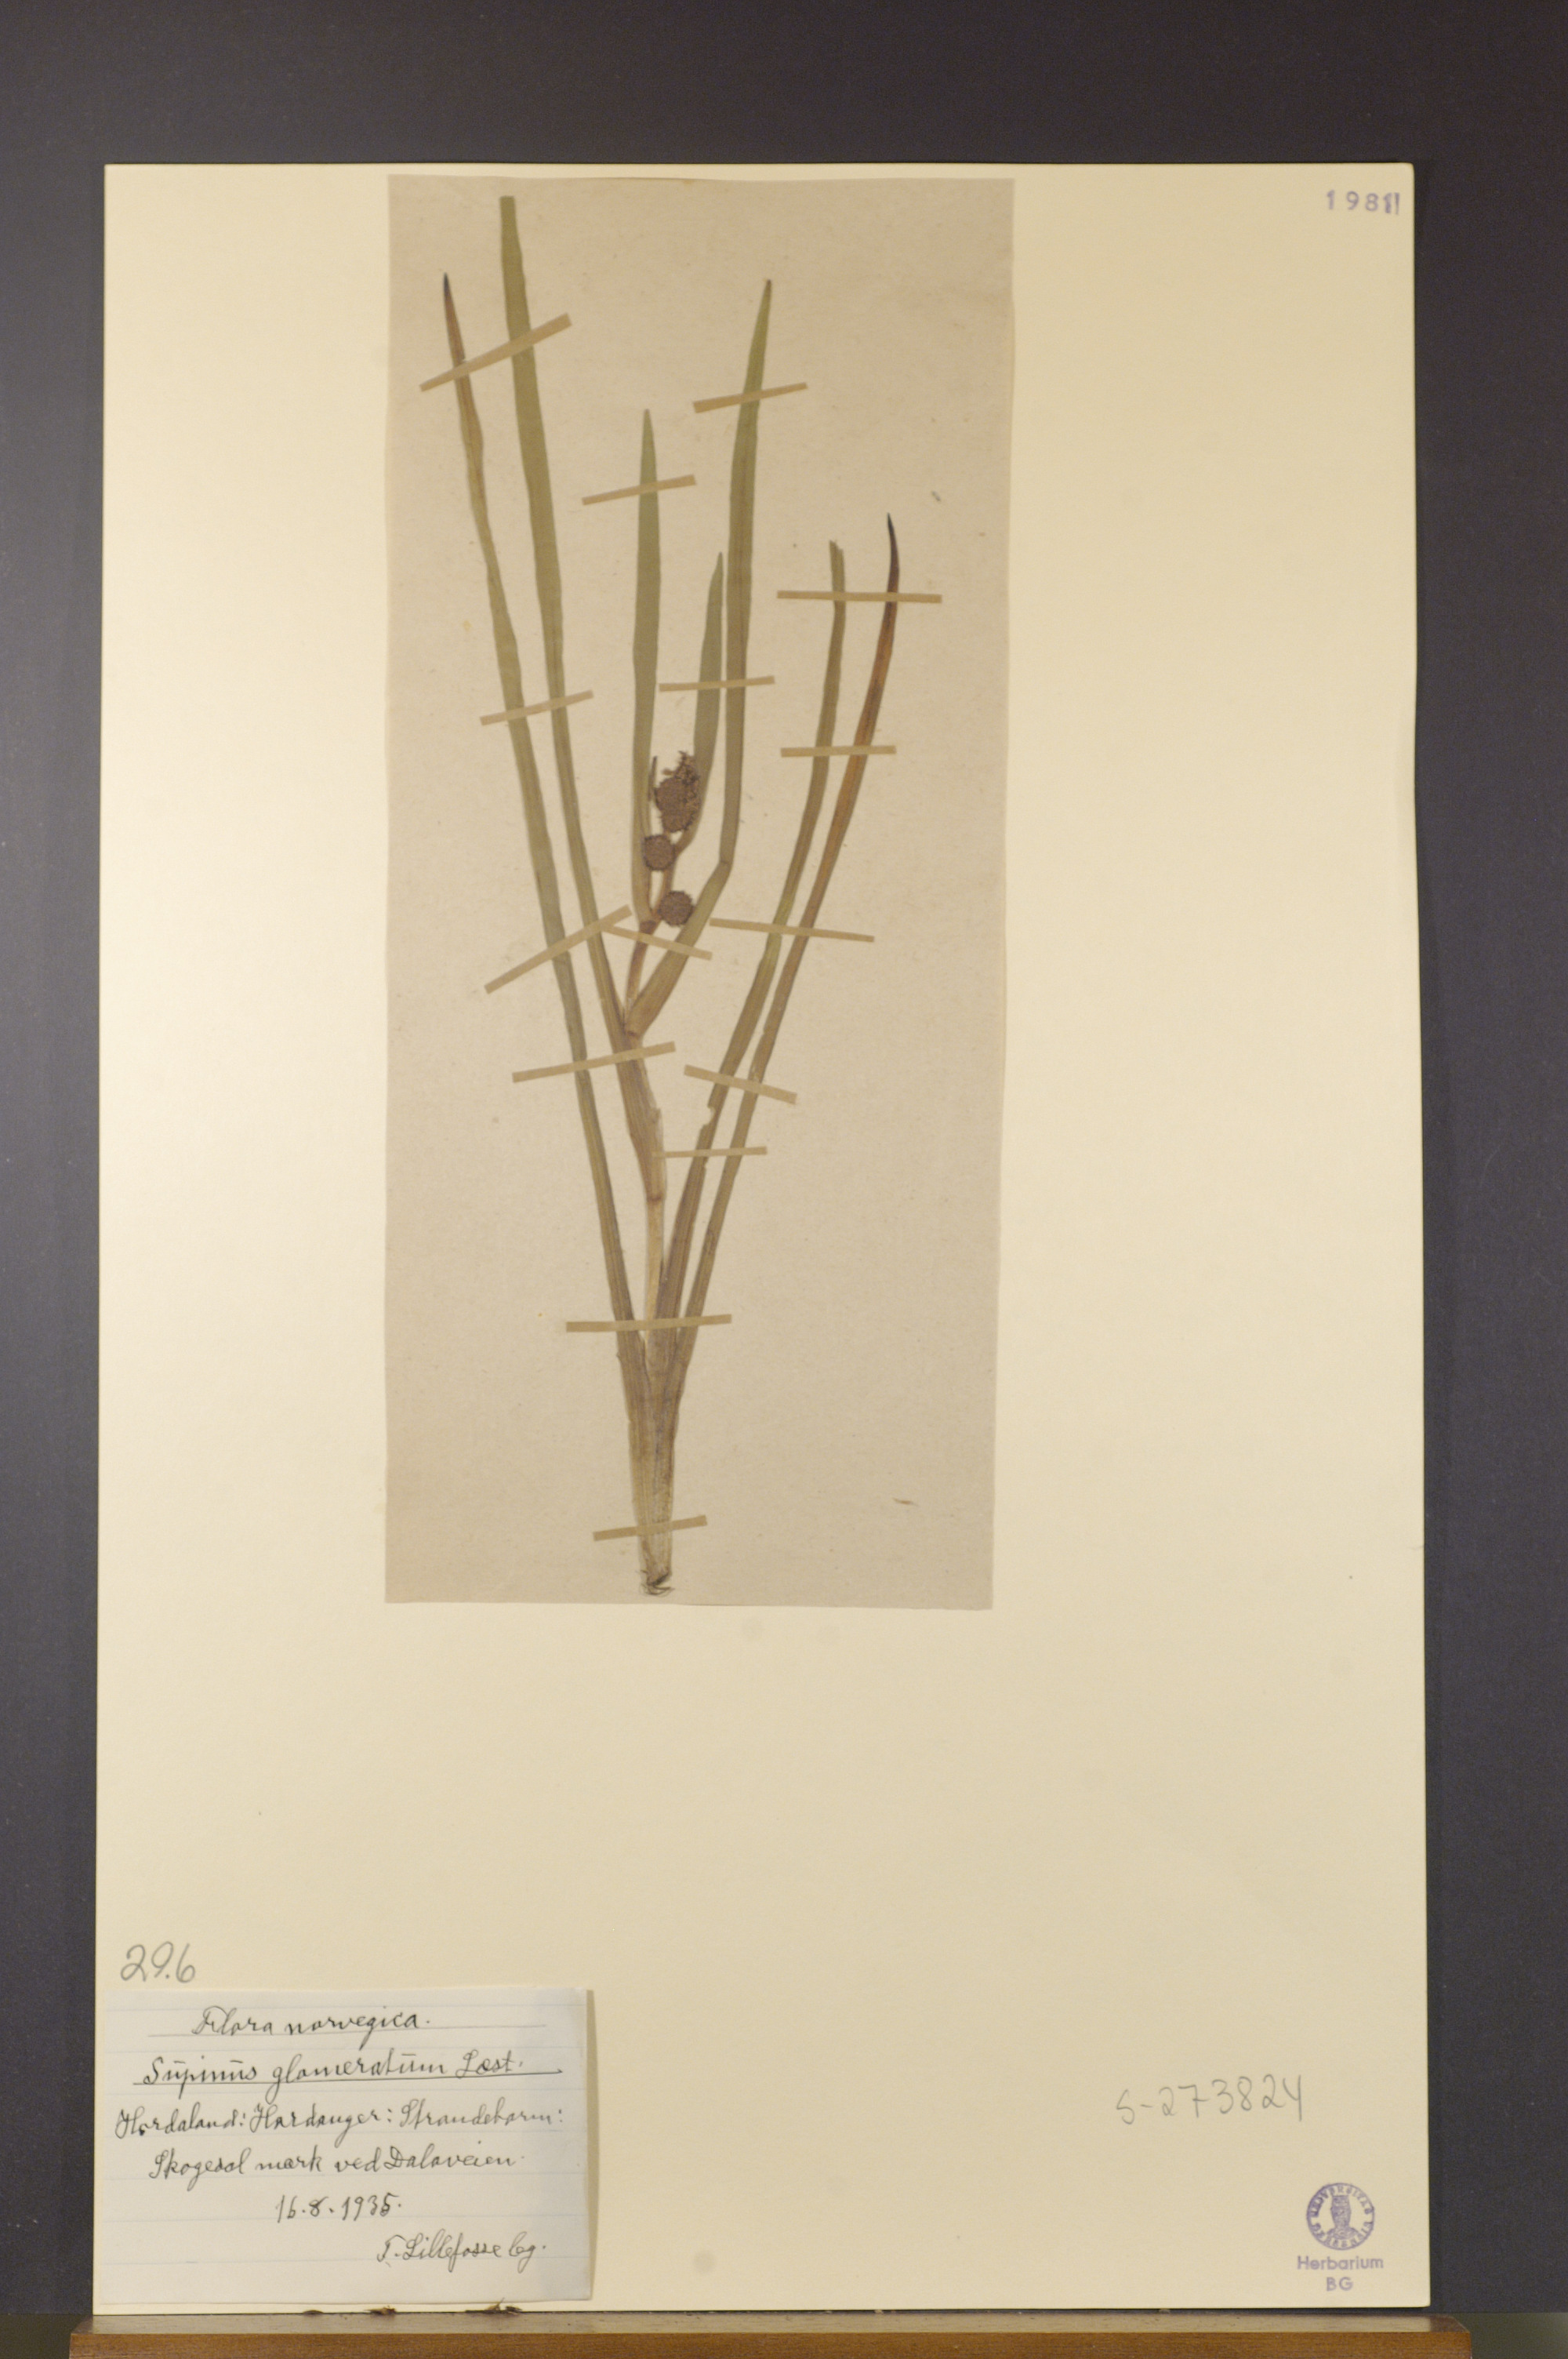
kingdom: Plantae
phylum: Tracheophyta
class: Liliopsida
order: Poales
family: Typhaceae
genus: Sparganium
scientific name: Sparganium glomeratum
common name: Clustered burreed
